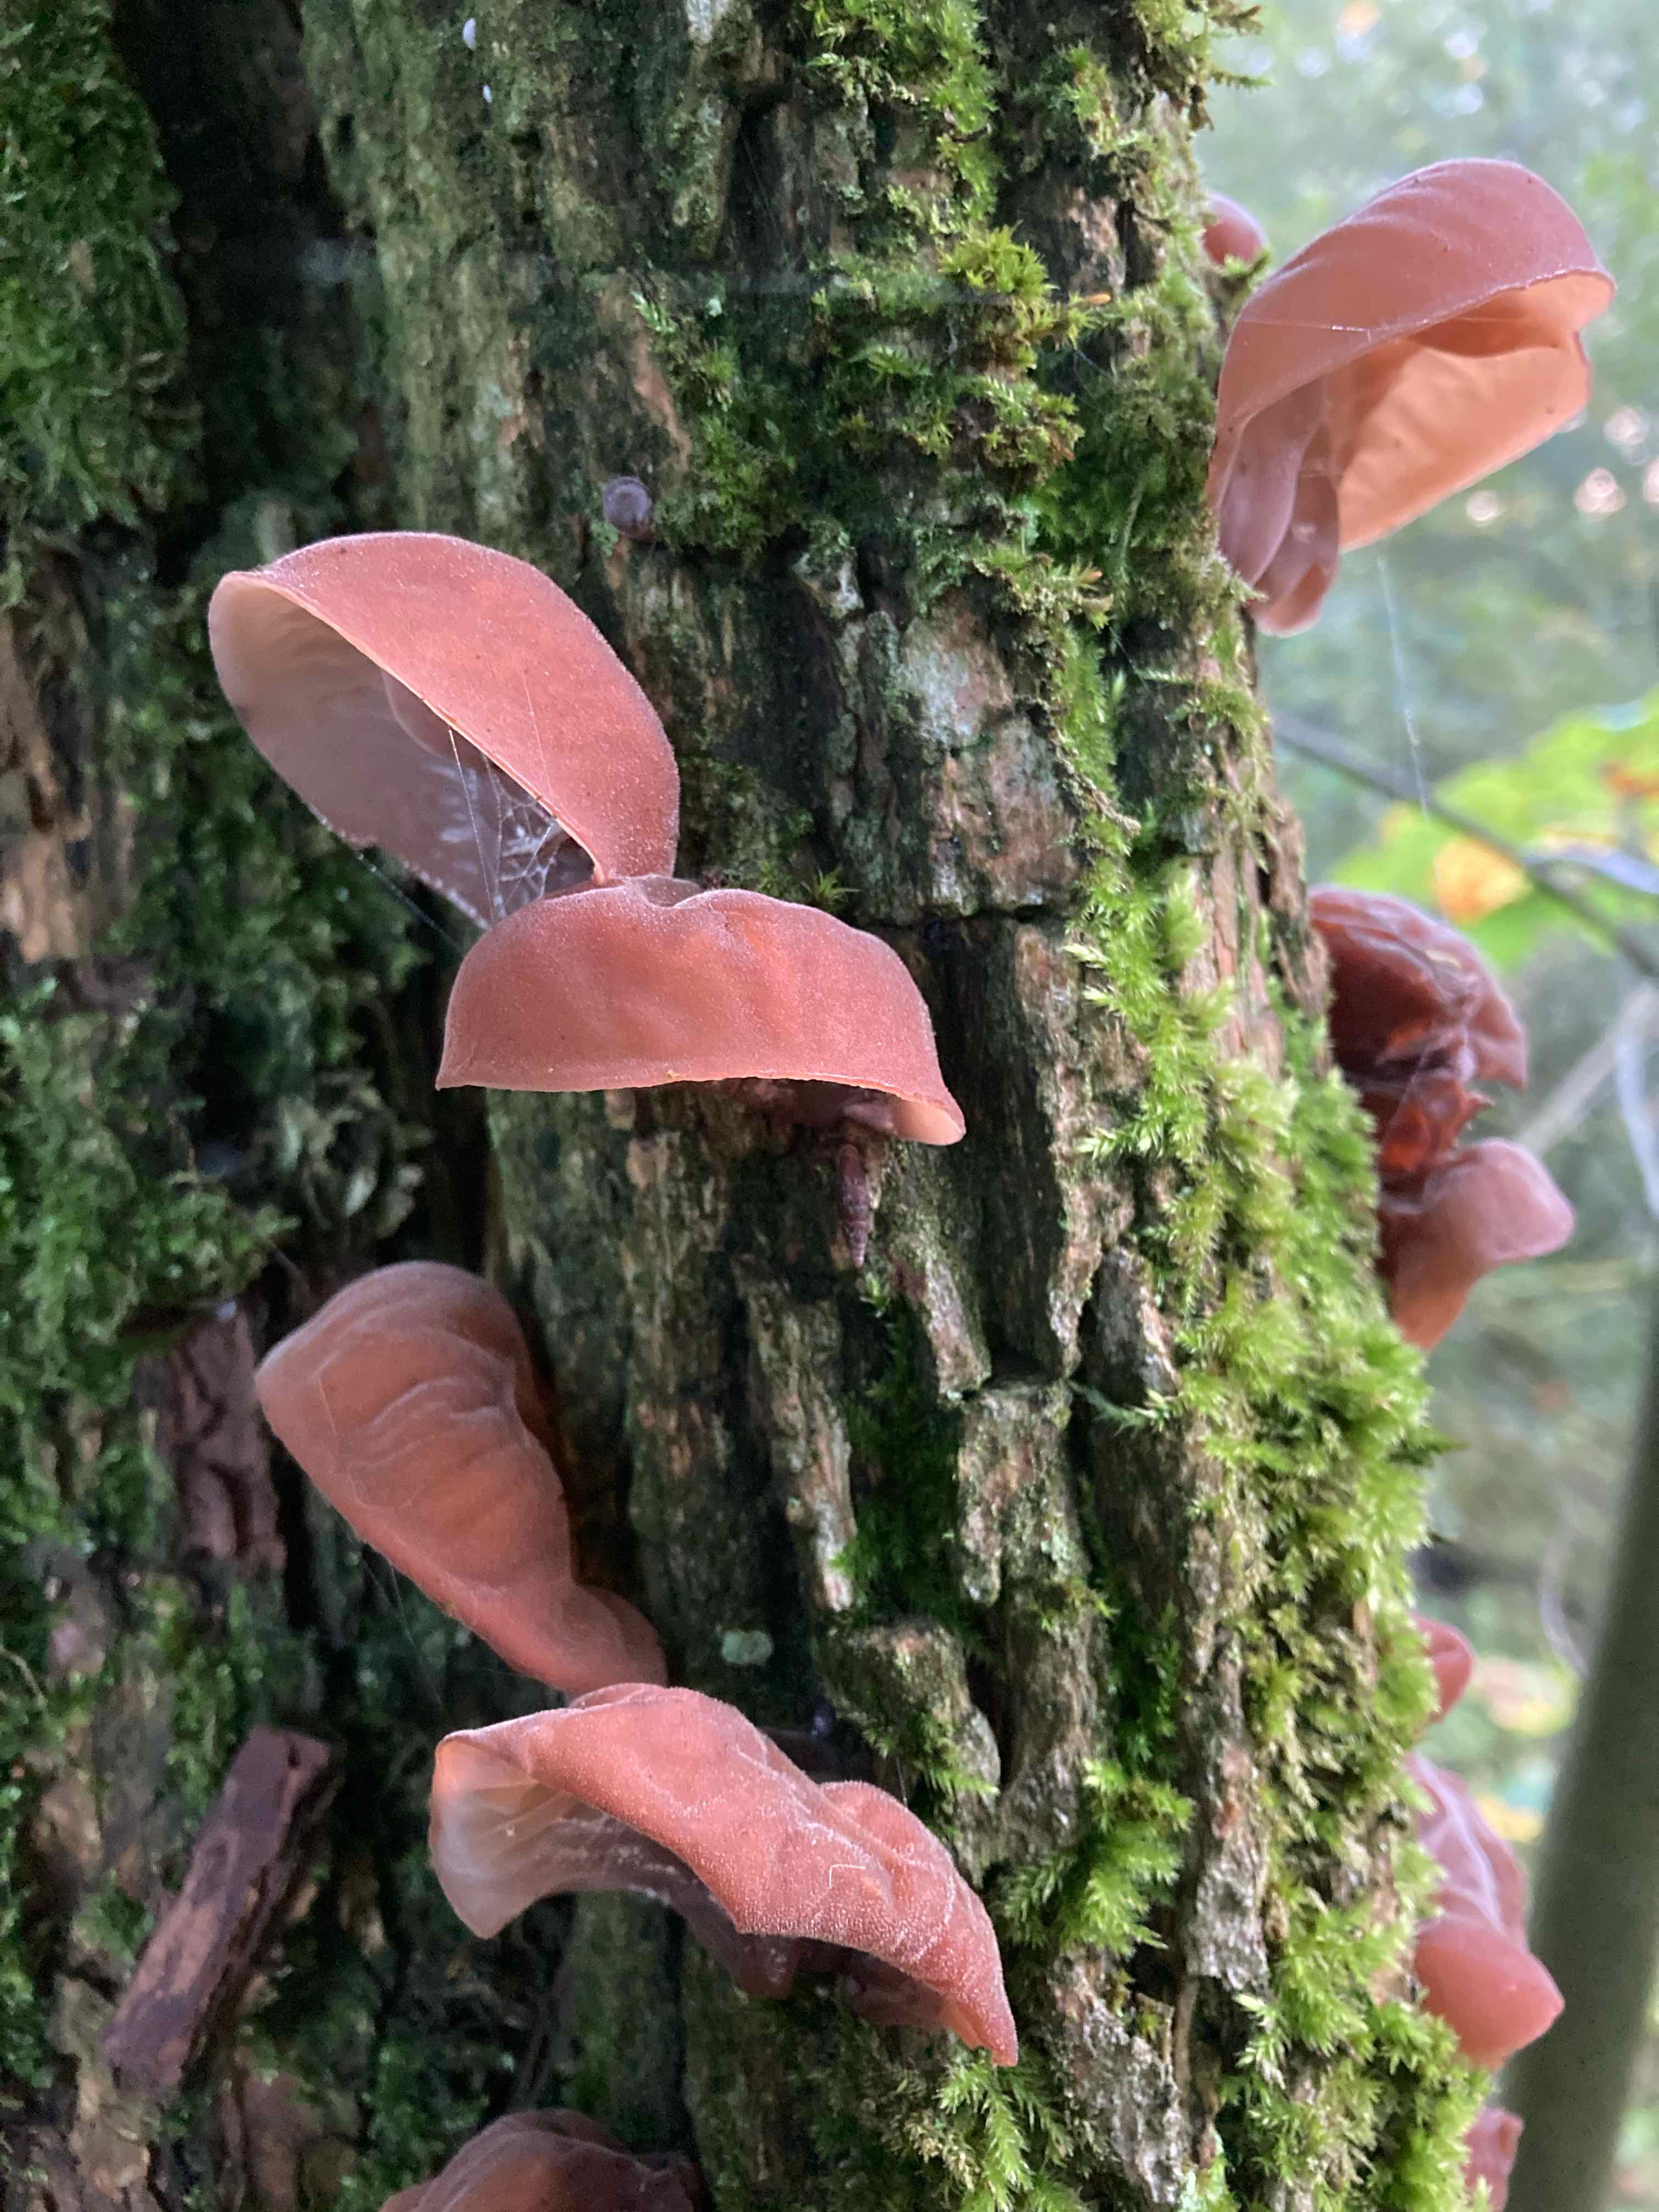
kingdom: Fungi
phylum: Basidiomycota
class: Agaricomycetes
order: Auriculariales
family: Auriculariaceae
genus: Auricularia
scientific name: Auricularia auricula-judae
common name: almindelig judasøre
